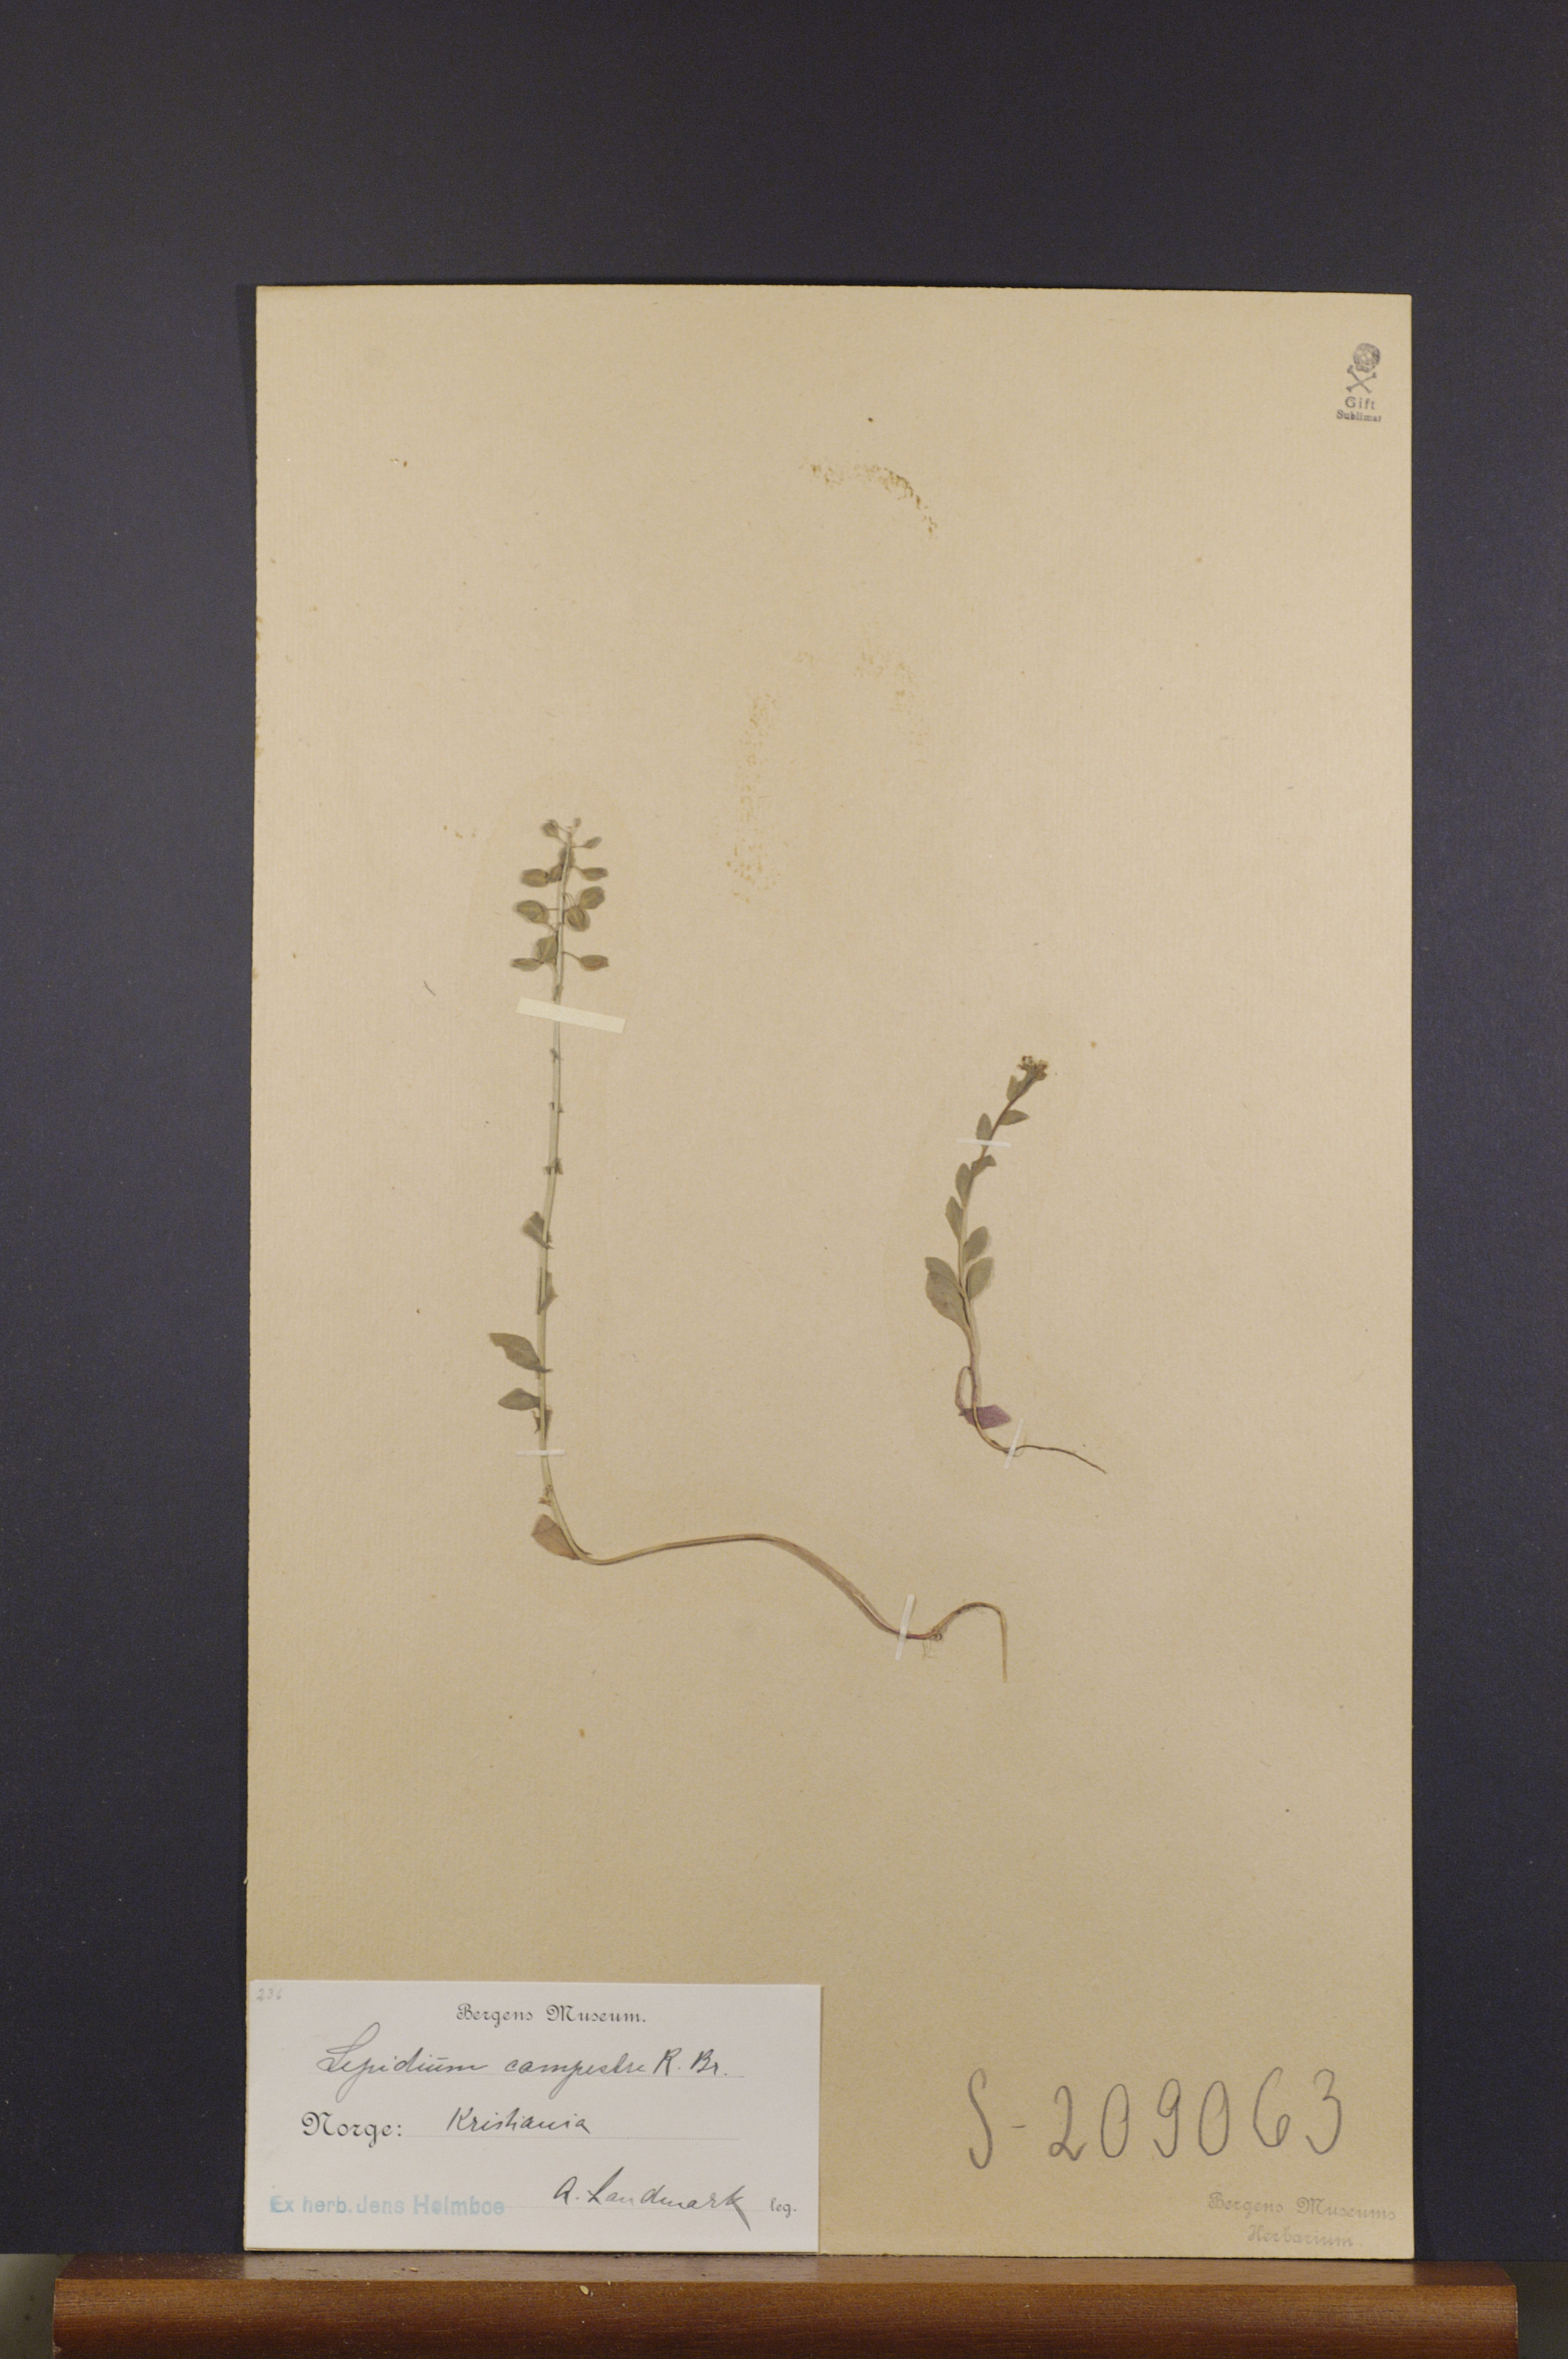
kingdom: Plantae
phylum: Tracheophyta
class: Magnoliopsida
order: Brassicales
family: Brassicaceae
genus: Lepidium
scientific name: Lepidium campestre
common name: Field pepperwort
